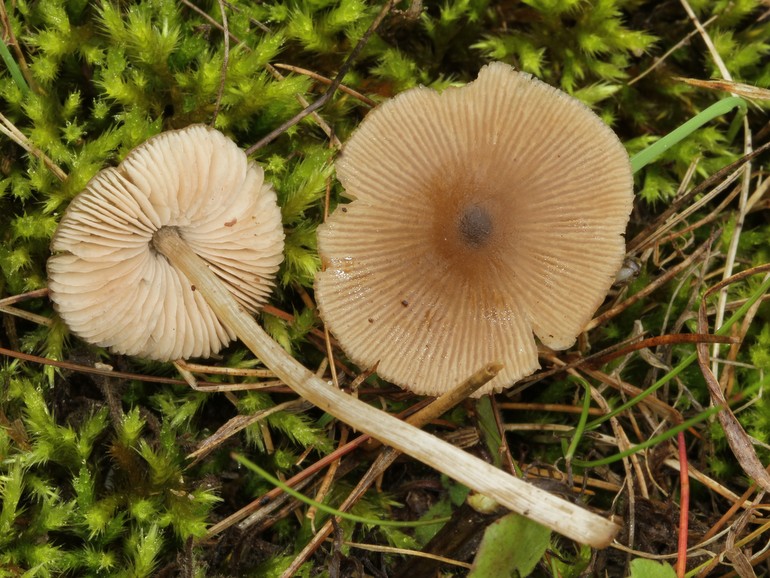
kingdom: Fungi
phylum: Basidiomycota
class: Agaricomycetes
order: Agaricales
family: Entolomataceae
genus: Entoloma
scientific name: Entoloma conferendum
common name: stjernesporet rødblad
